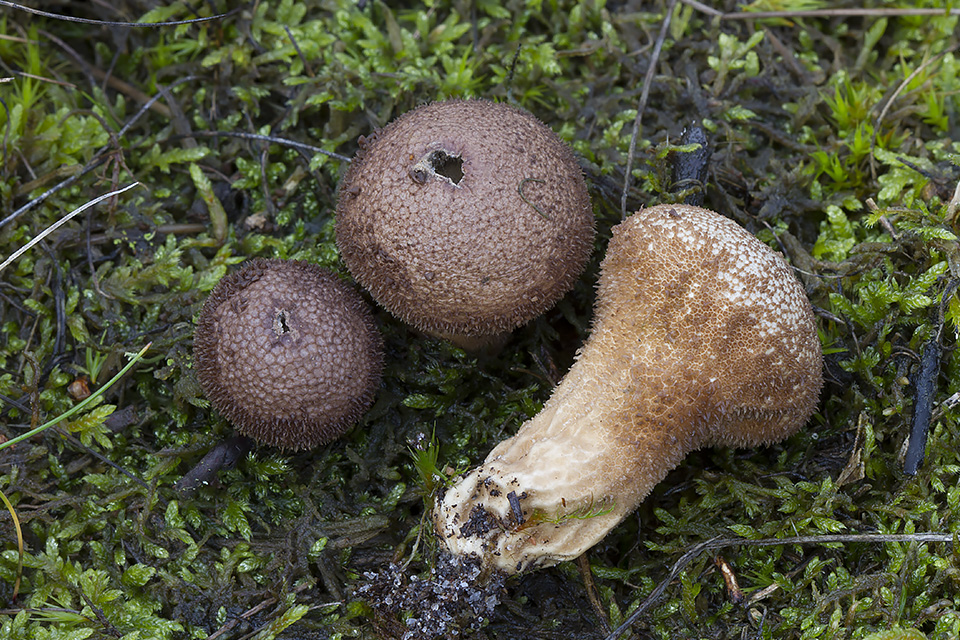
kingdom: Fungi
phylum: Basidiomycota
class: Agaricomycetes
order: Agaricales
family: Lycoperdaceae
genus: Lycoperdon
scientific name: Lycoperdon nigrescens
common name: sortagtig støvbold
